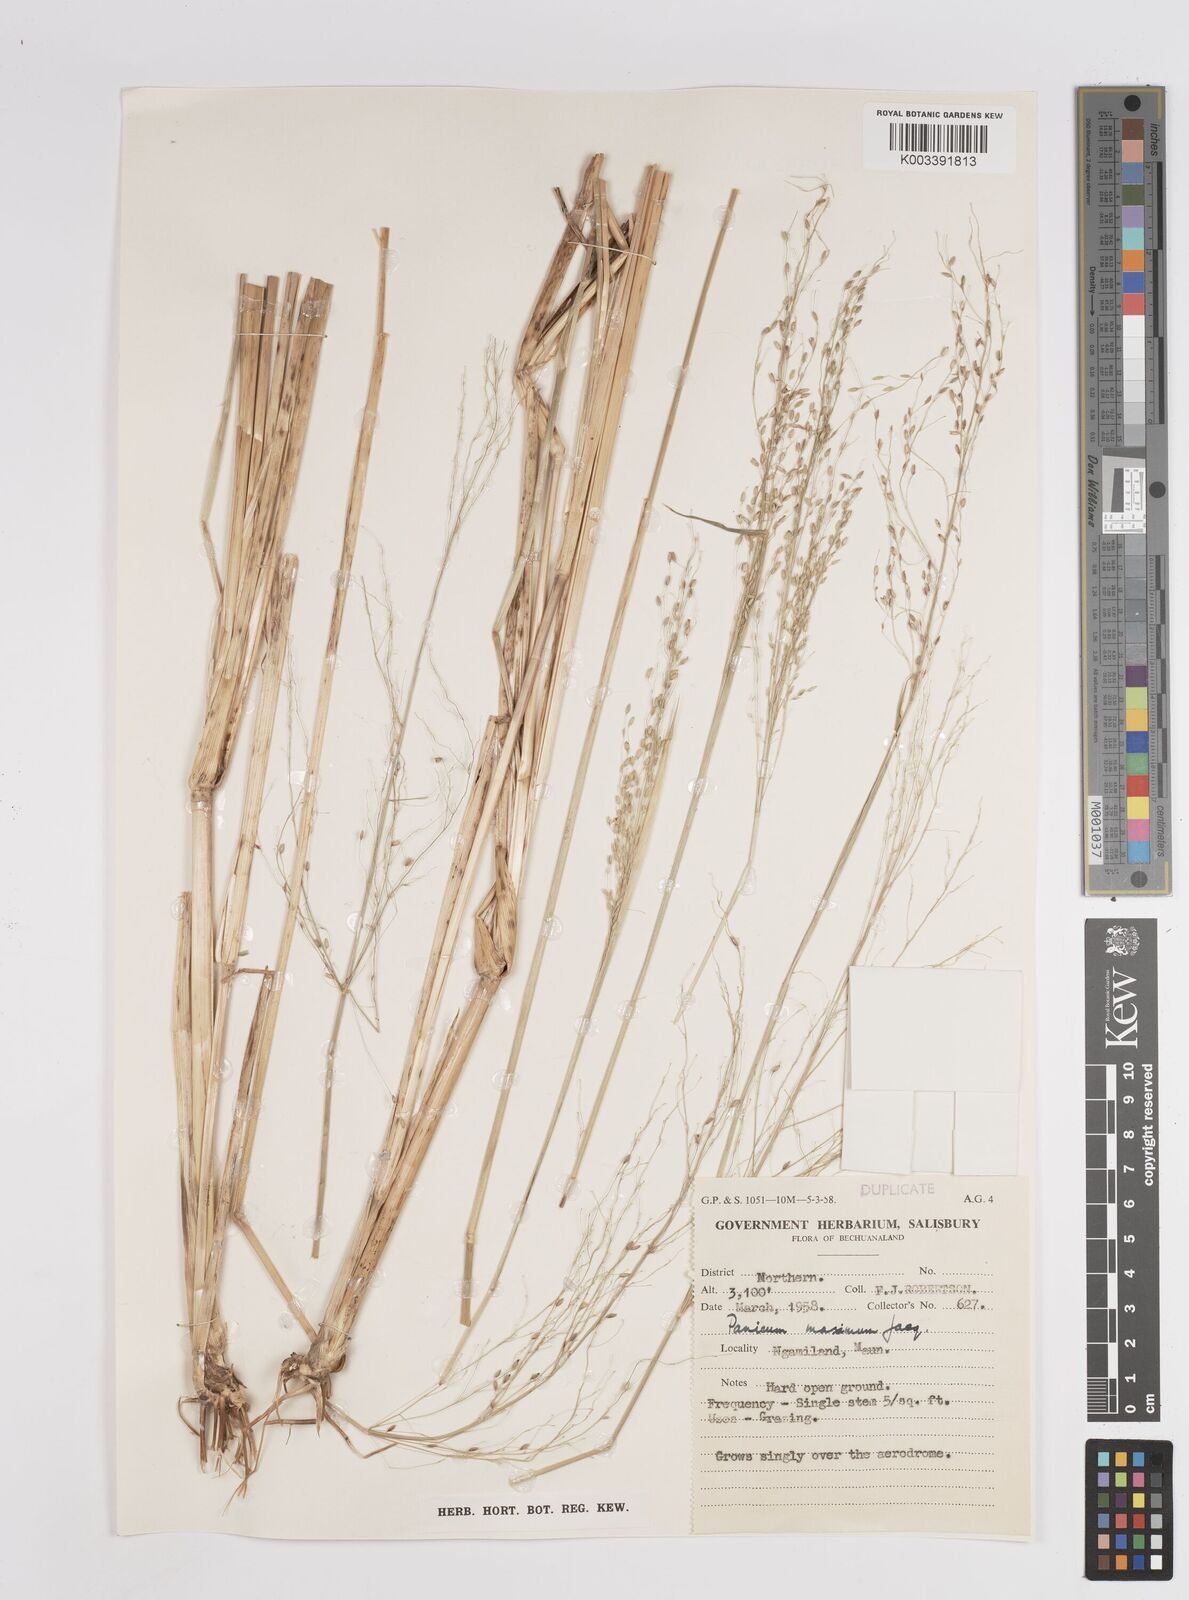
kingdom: Plantae
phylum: Tracheophyta
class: Liliopsida
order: Poales
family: Poaceae
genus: Megathyrsus
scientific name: Megathyrsus maximus
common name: Guineagrass
